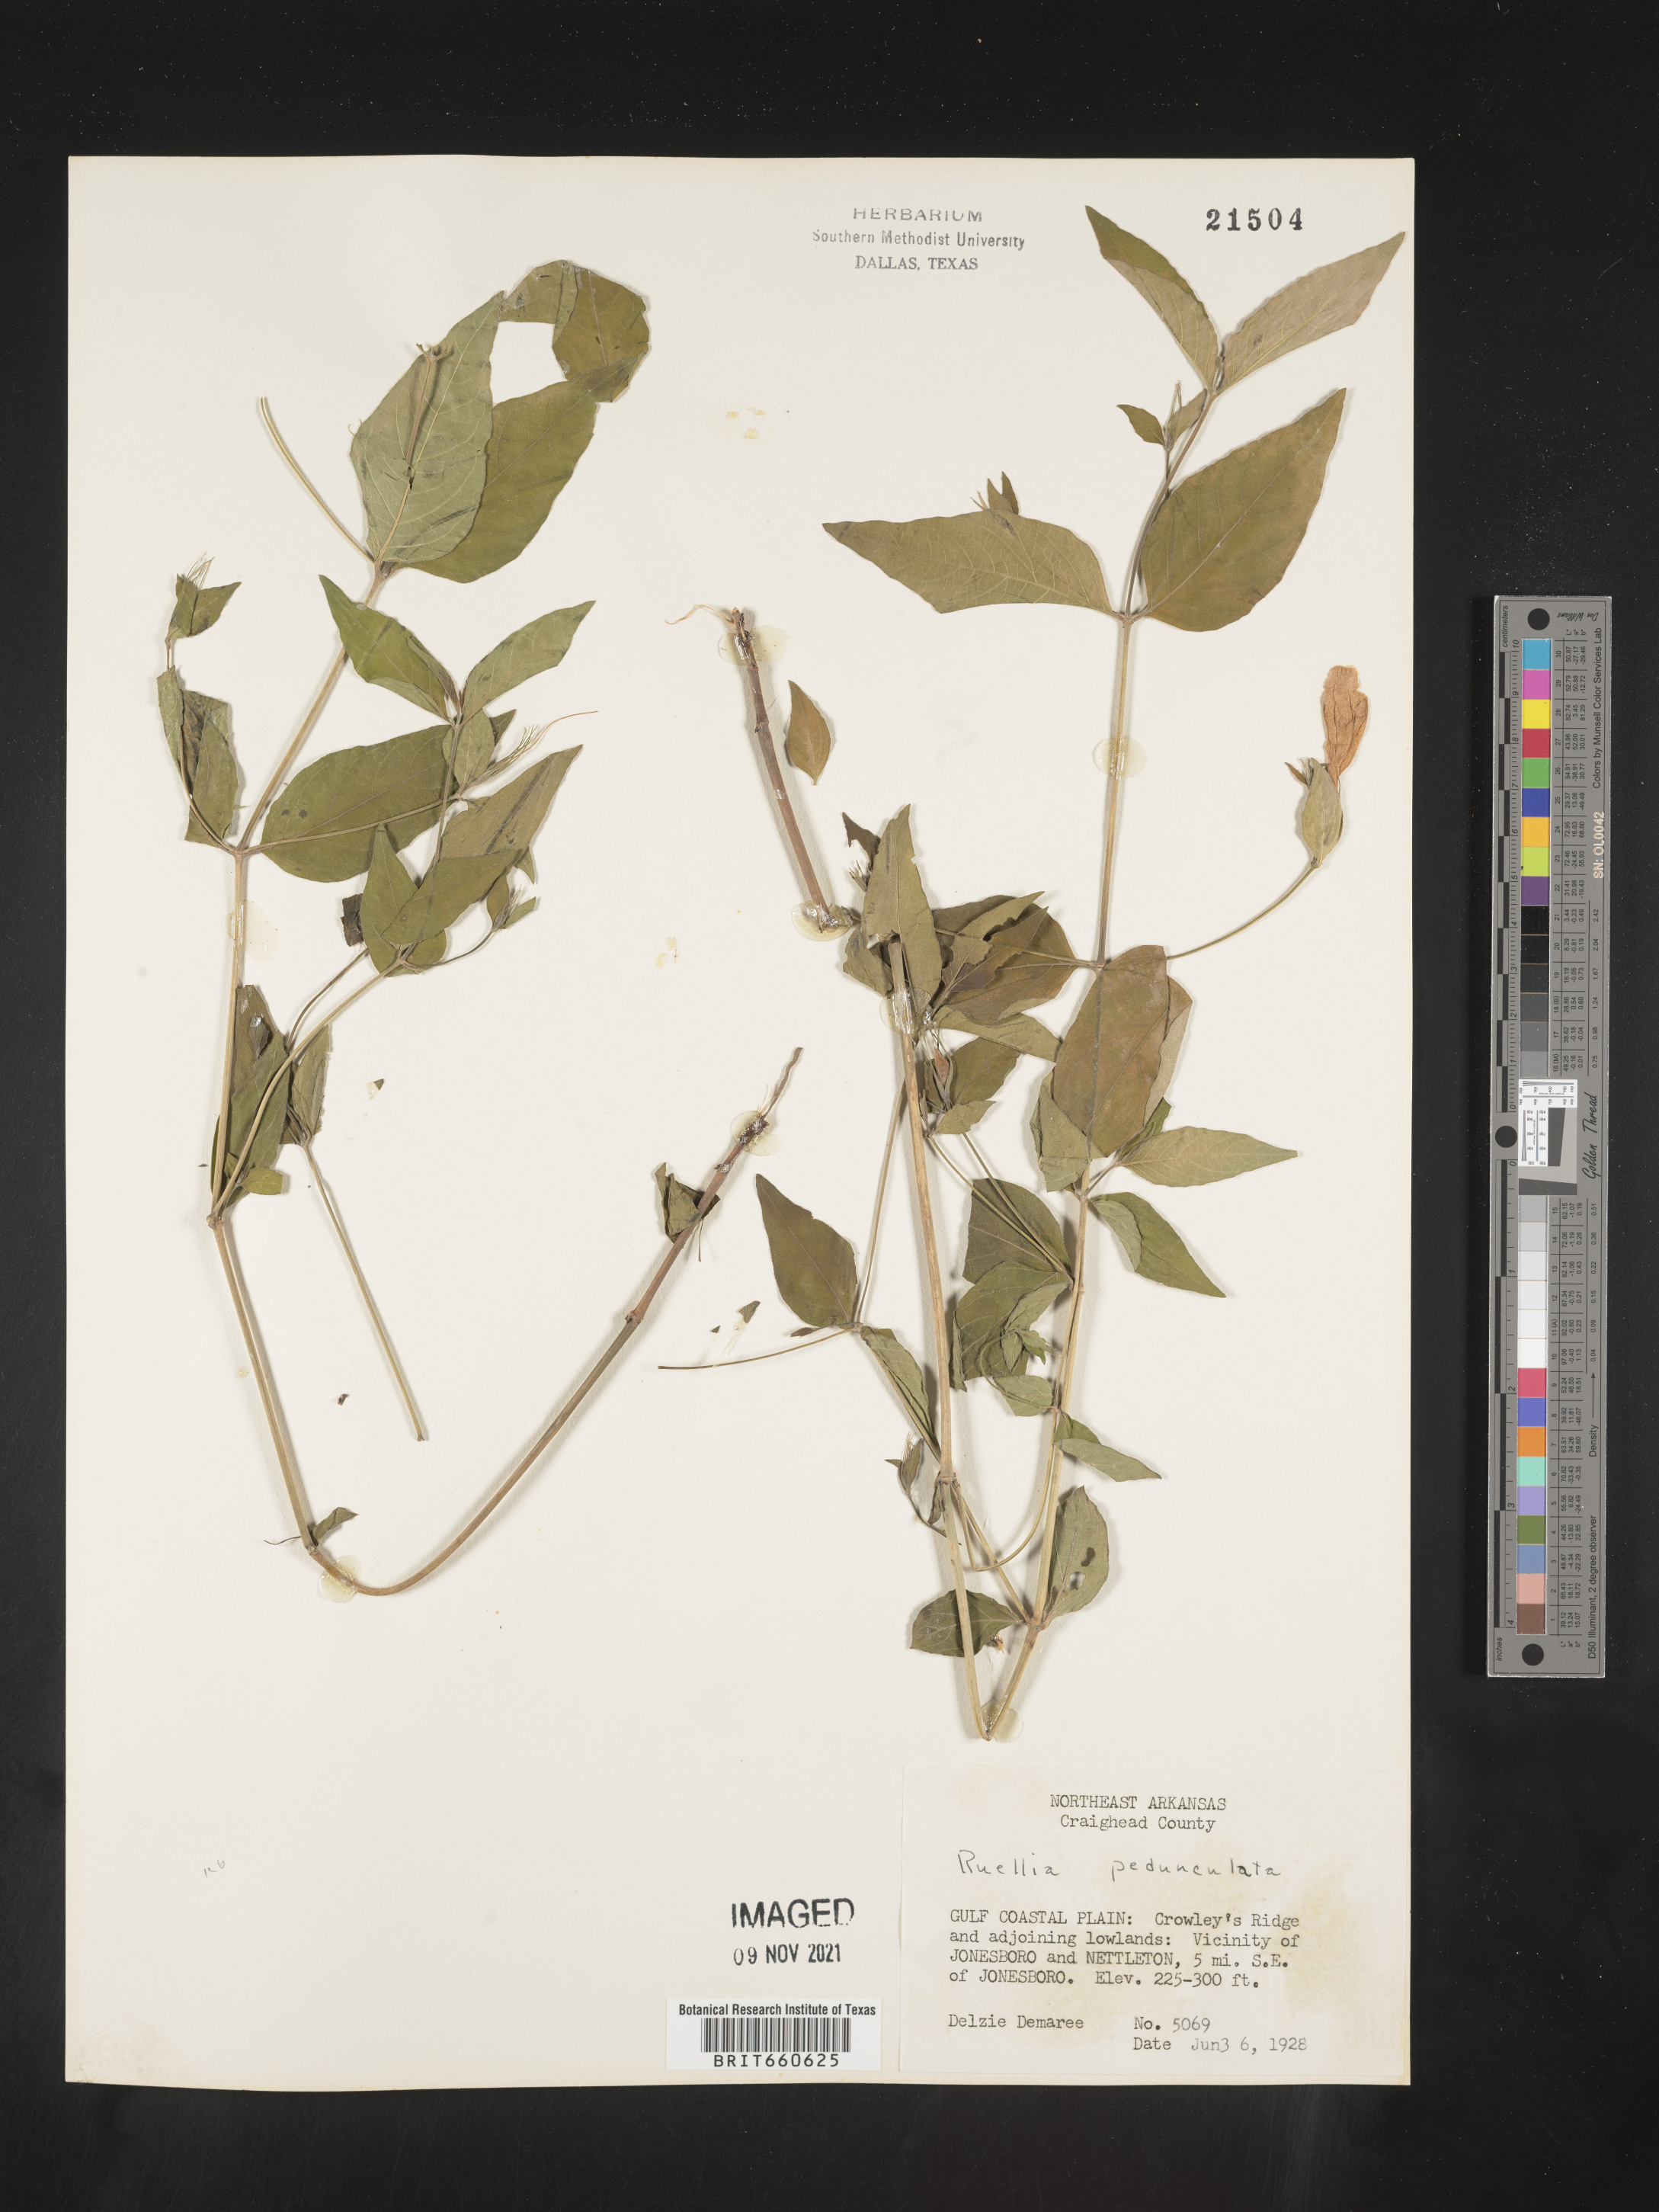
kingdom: Plantae
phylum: Tracheophyta
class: Magnoliopsida
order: Lamiales
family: Acanthaceae
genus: Ruellia
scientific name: Ruellia pedunculata
